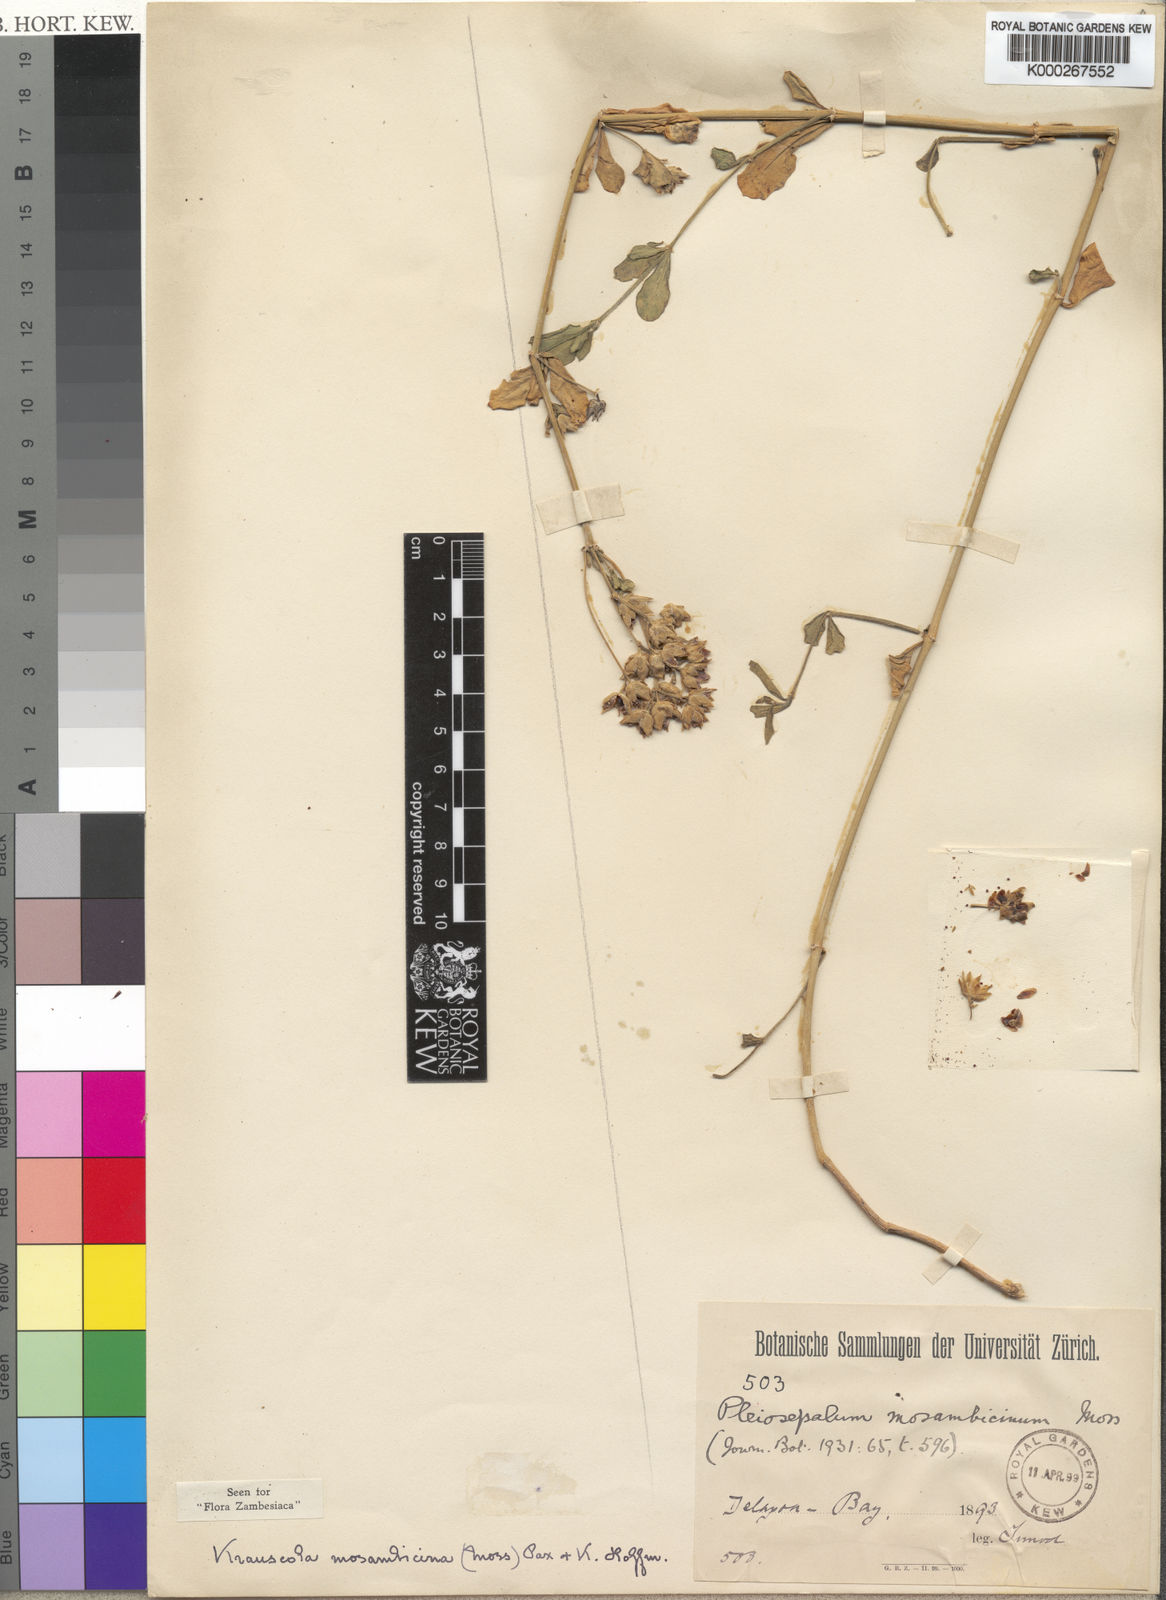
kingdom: Plantae
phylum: Tracheophyta
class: Magnoliopsida
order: Caryophyllales
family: Caryophyllaceae
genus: Krauseola
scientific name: Krauseola mosambicina
